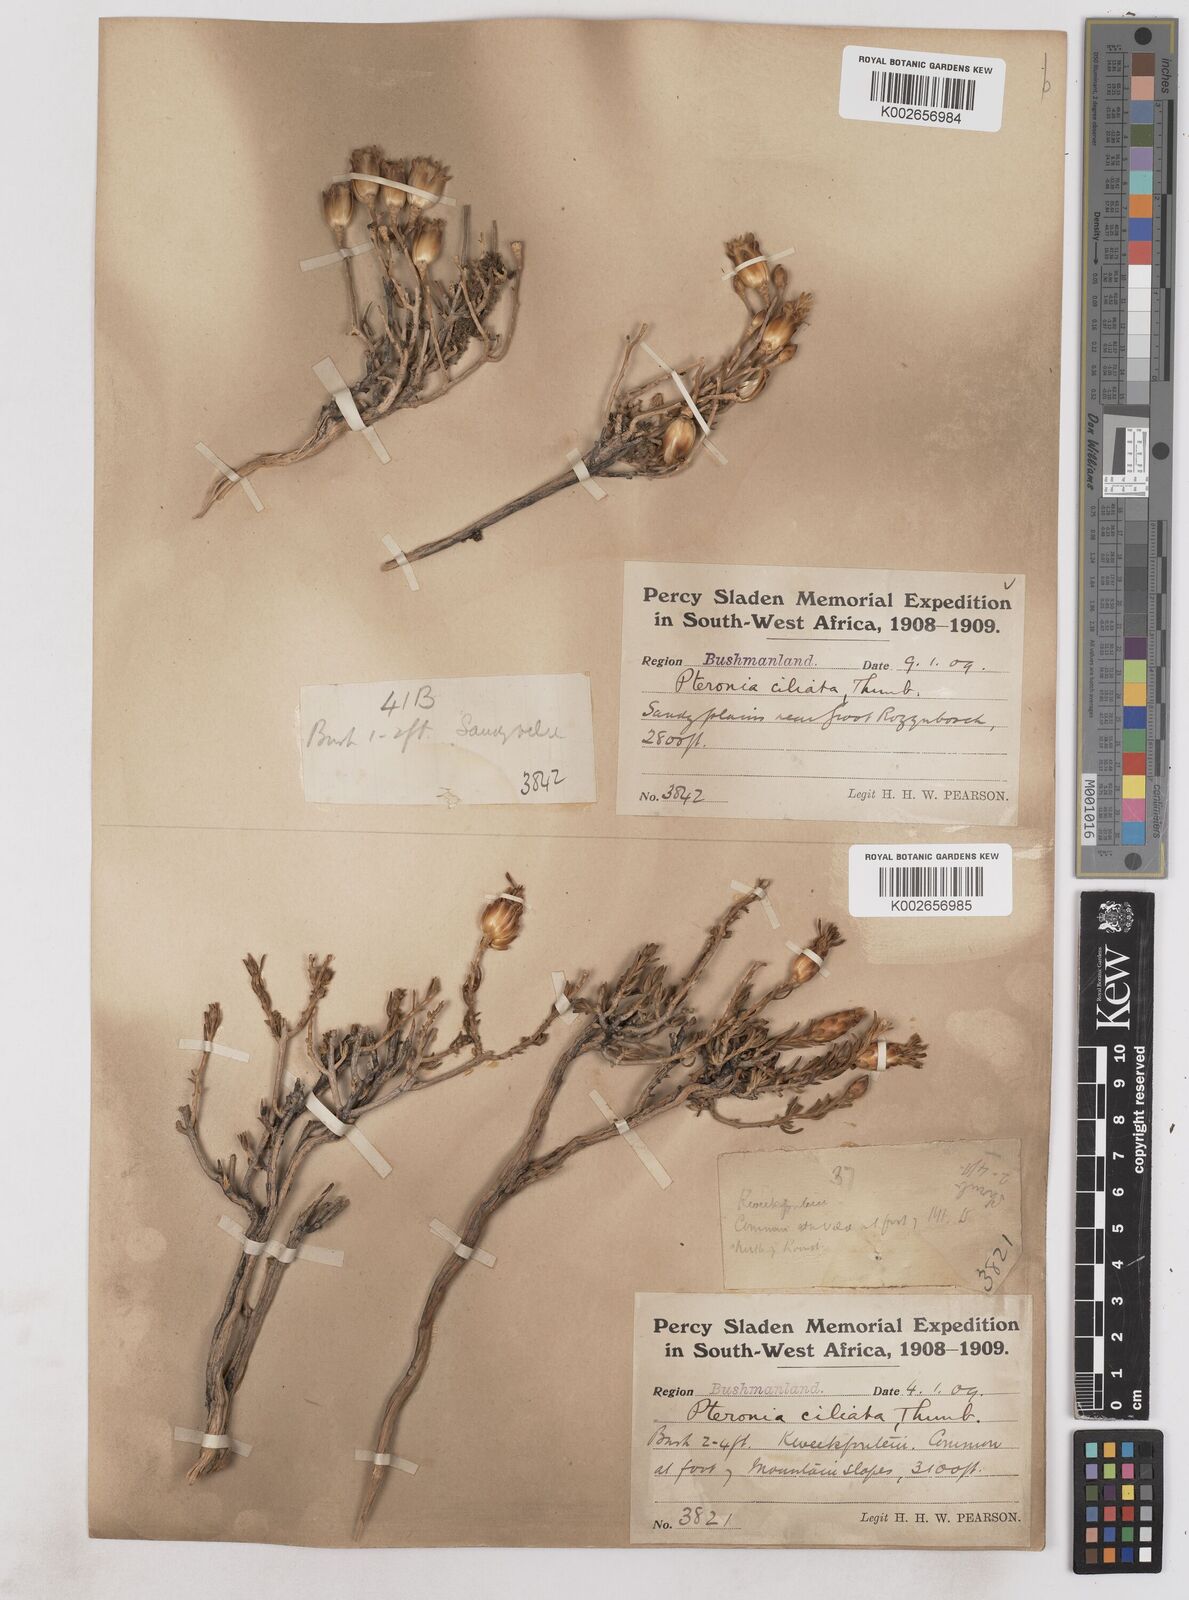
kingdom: Plantae
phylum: Tracheophyta
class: Magnoliopsida
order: Asterales
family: Asteraceae
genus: Pteronia
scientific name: Pteronia ciliata
